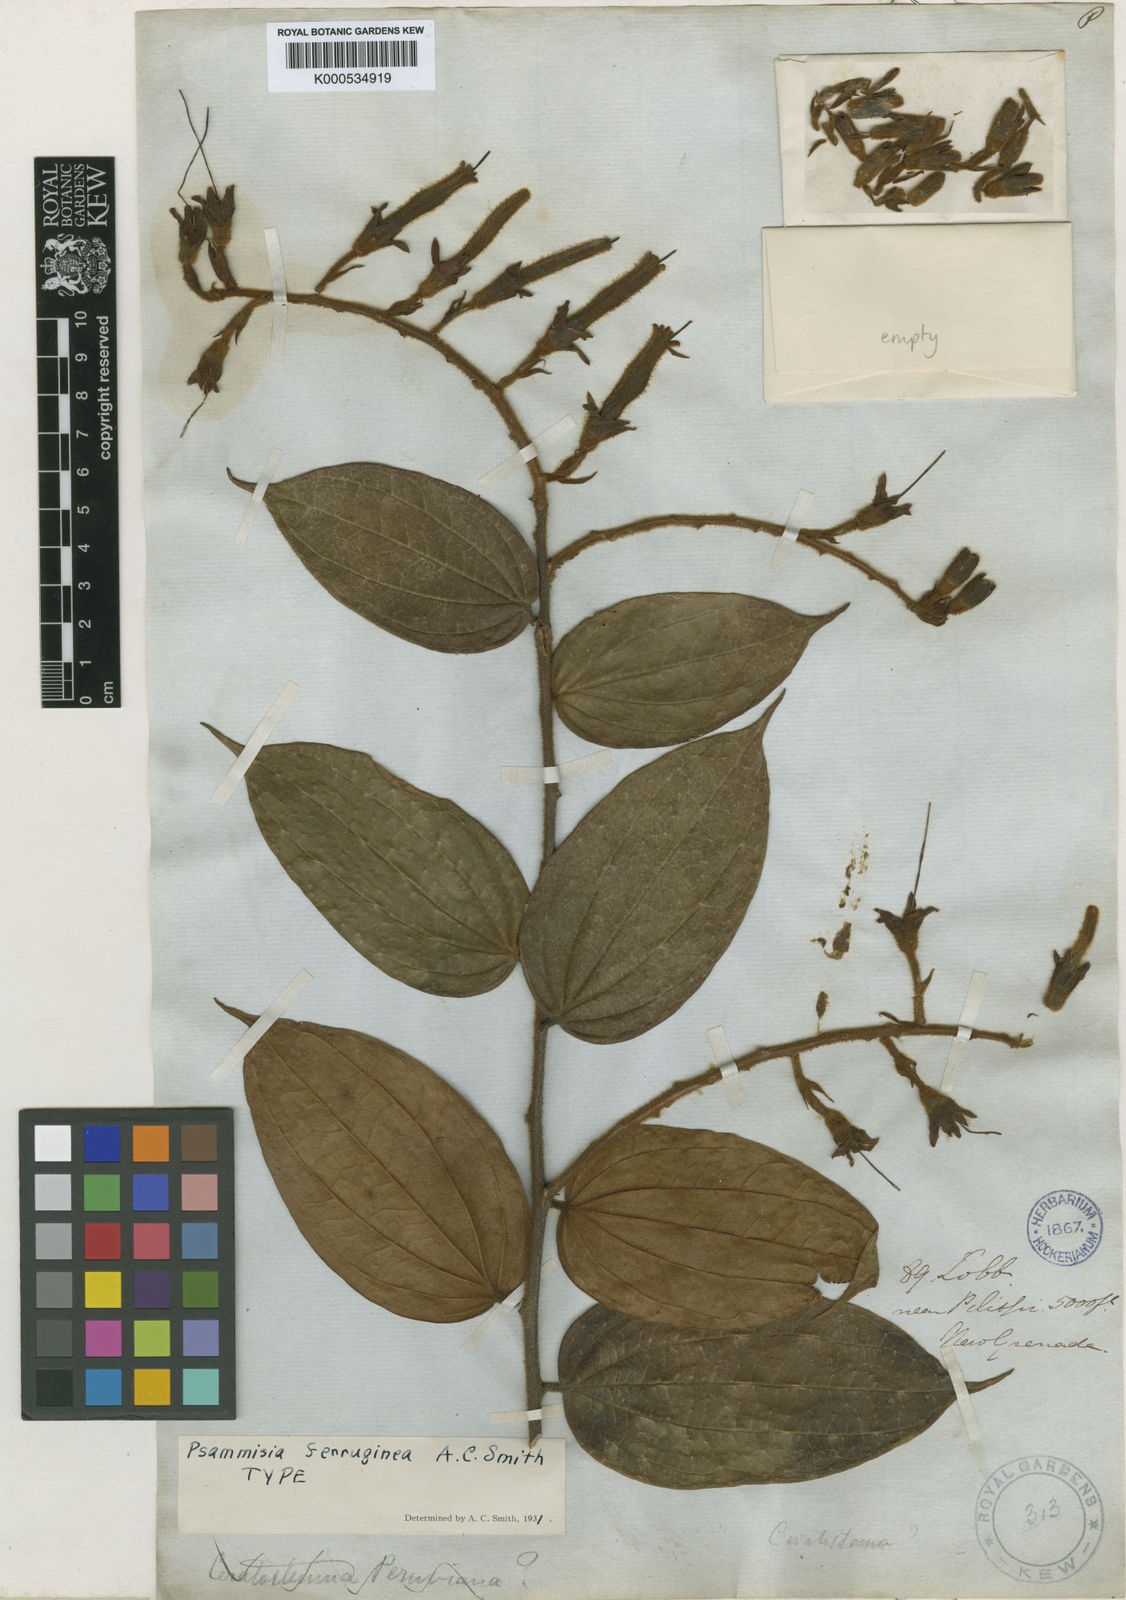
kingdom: Plantae
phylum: Tracheophyta
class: Magnoliopsida
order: Ericales
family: Ericaceae
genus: Psammisia
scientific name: Psammisia ferruginea
